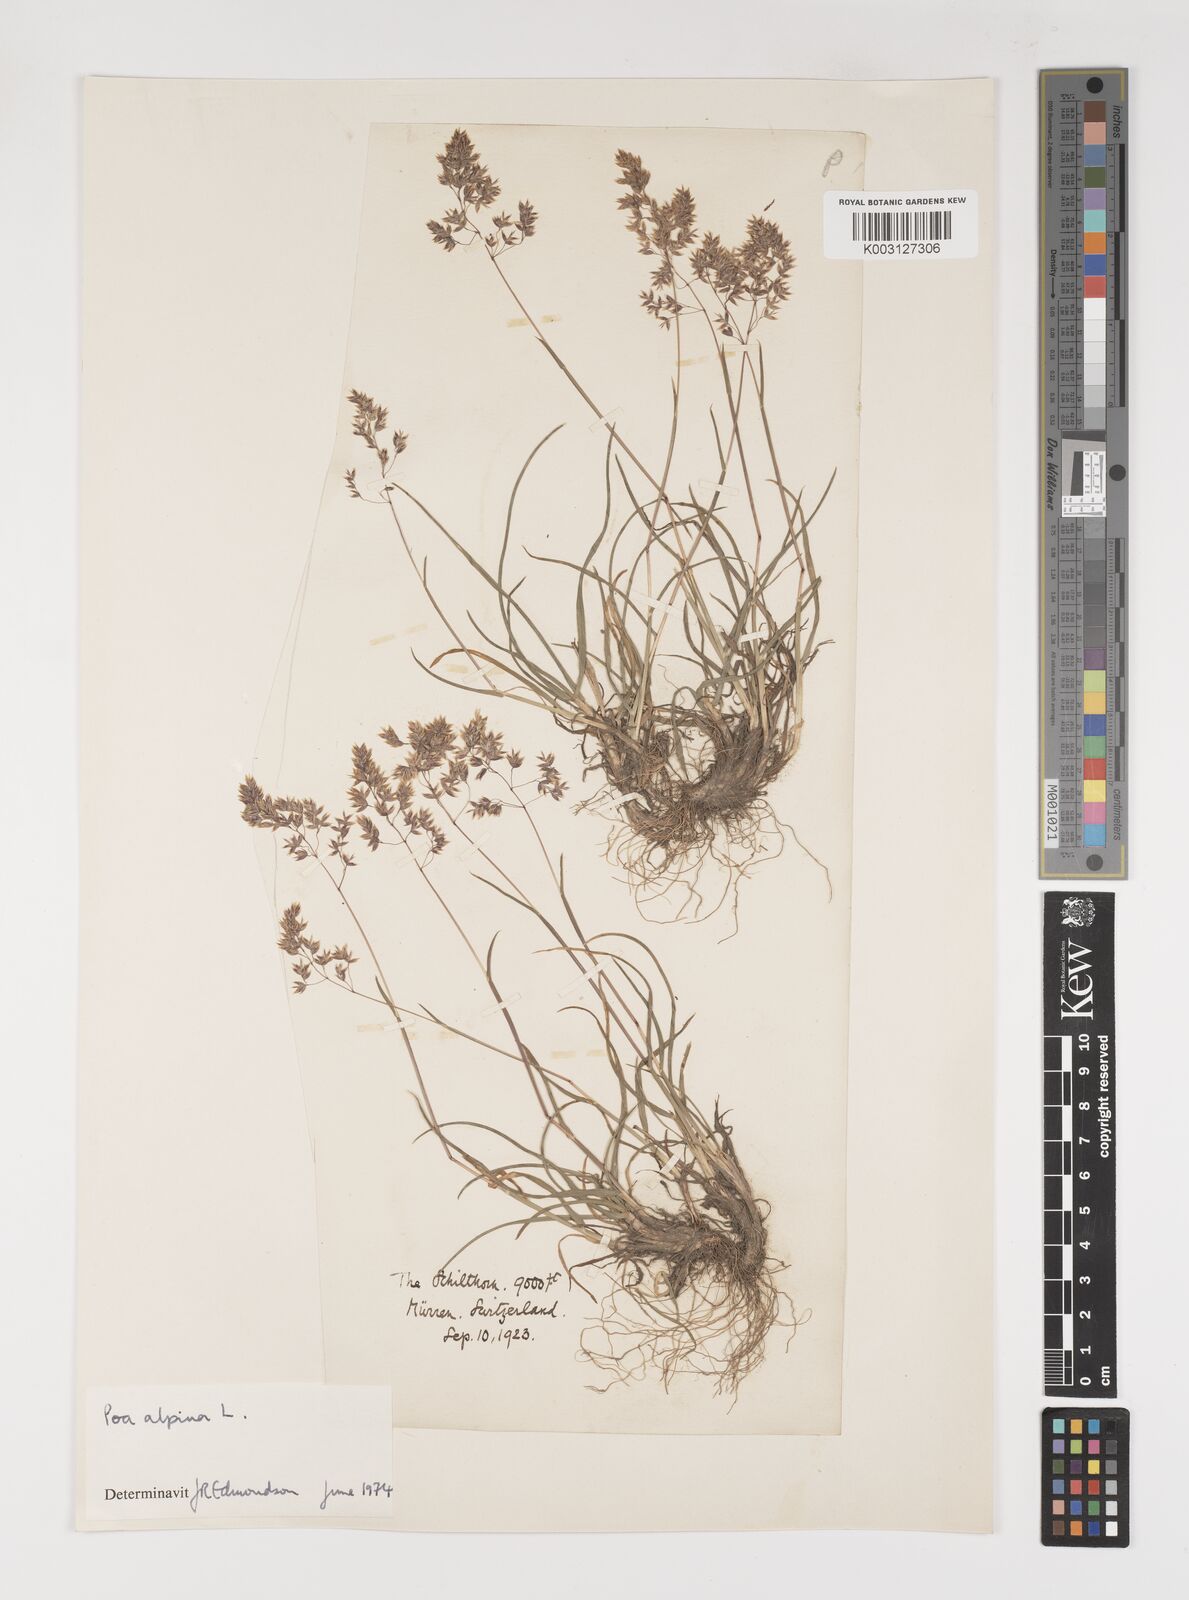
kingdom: Plantae
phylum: Tracheophyta
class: Liliopsida
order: Poales
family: Poaceae
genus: Poa
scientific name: Poa alpina
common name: Alpine bluegrass
